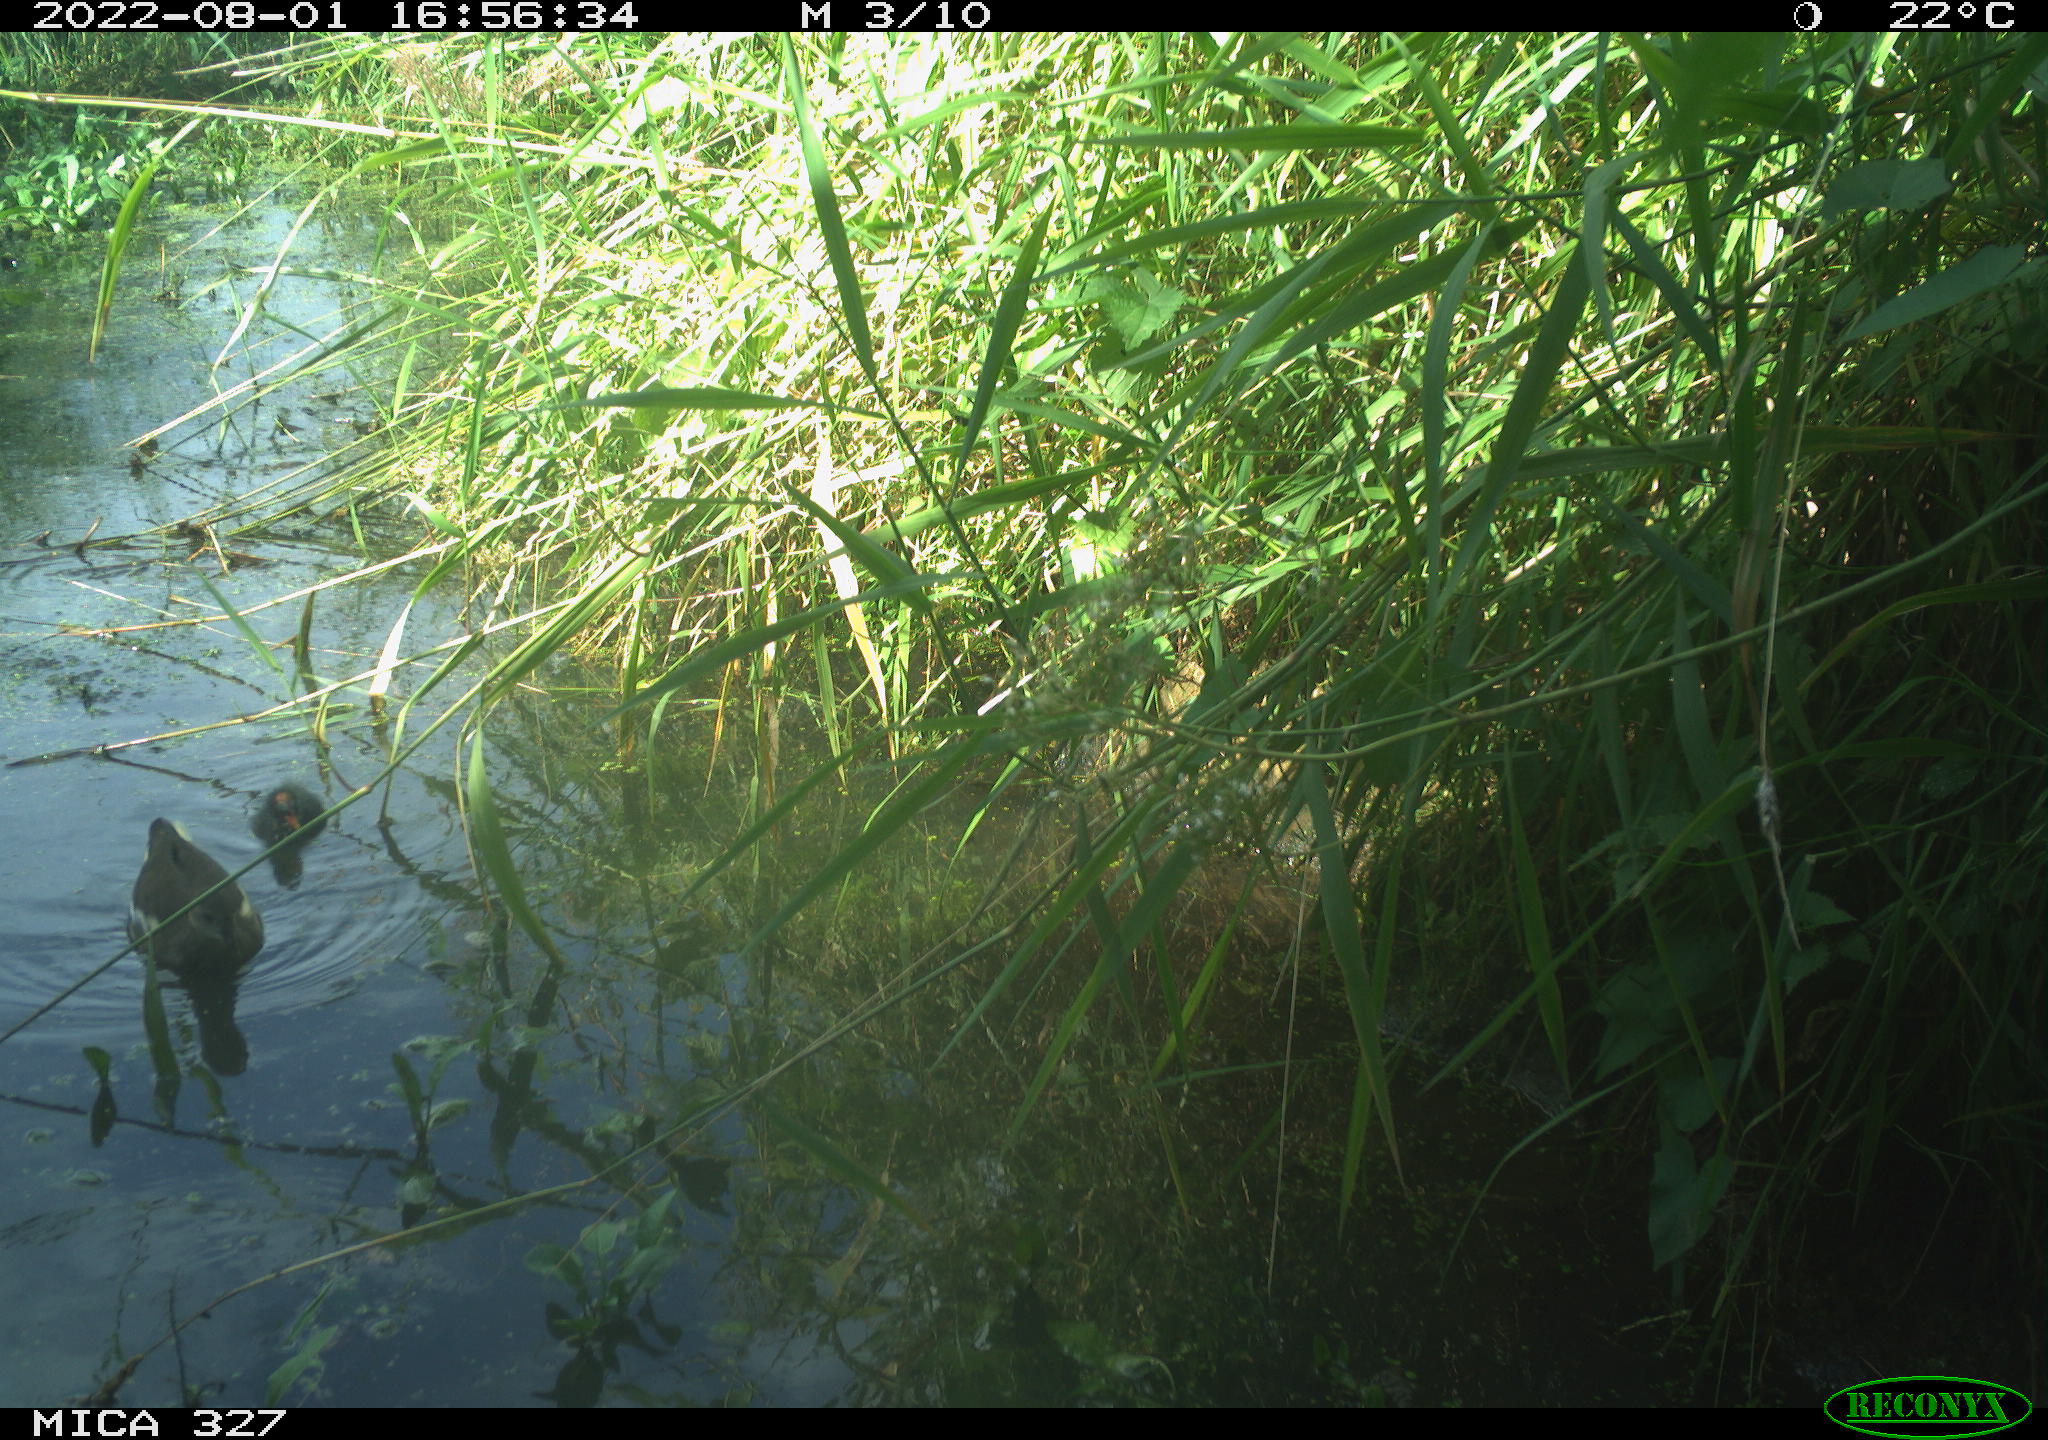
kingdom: Animalia
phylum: Chordata
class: Aves
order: Gruiformes
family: Rallidae
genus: Gallinula
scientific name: Gallinula chloropus
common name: Common moorhen
